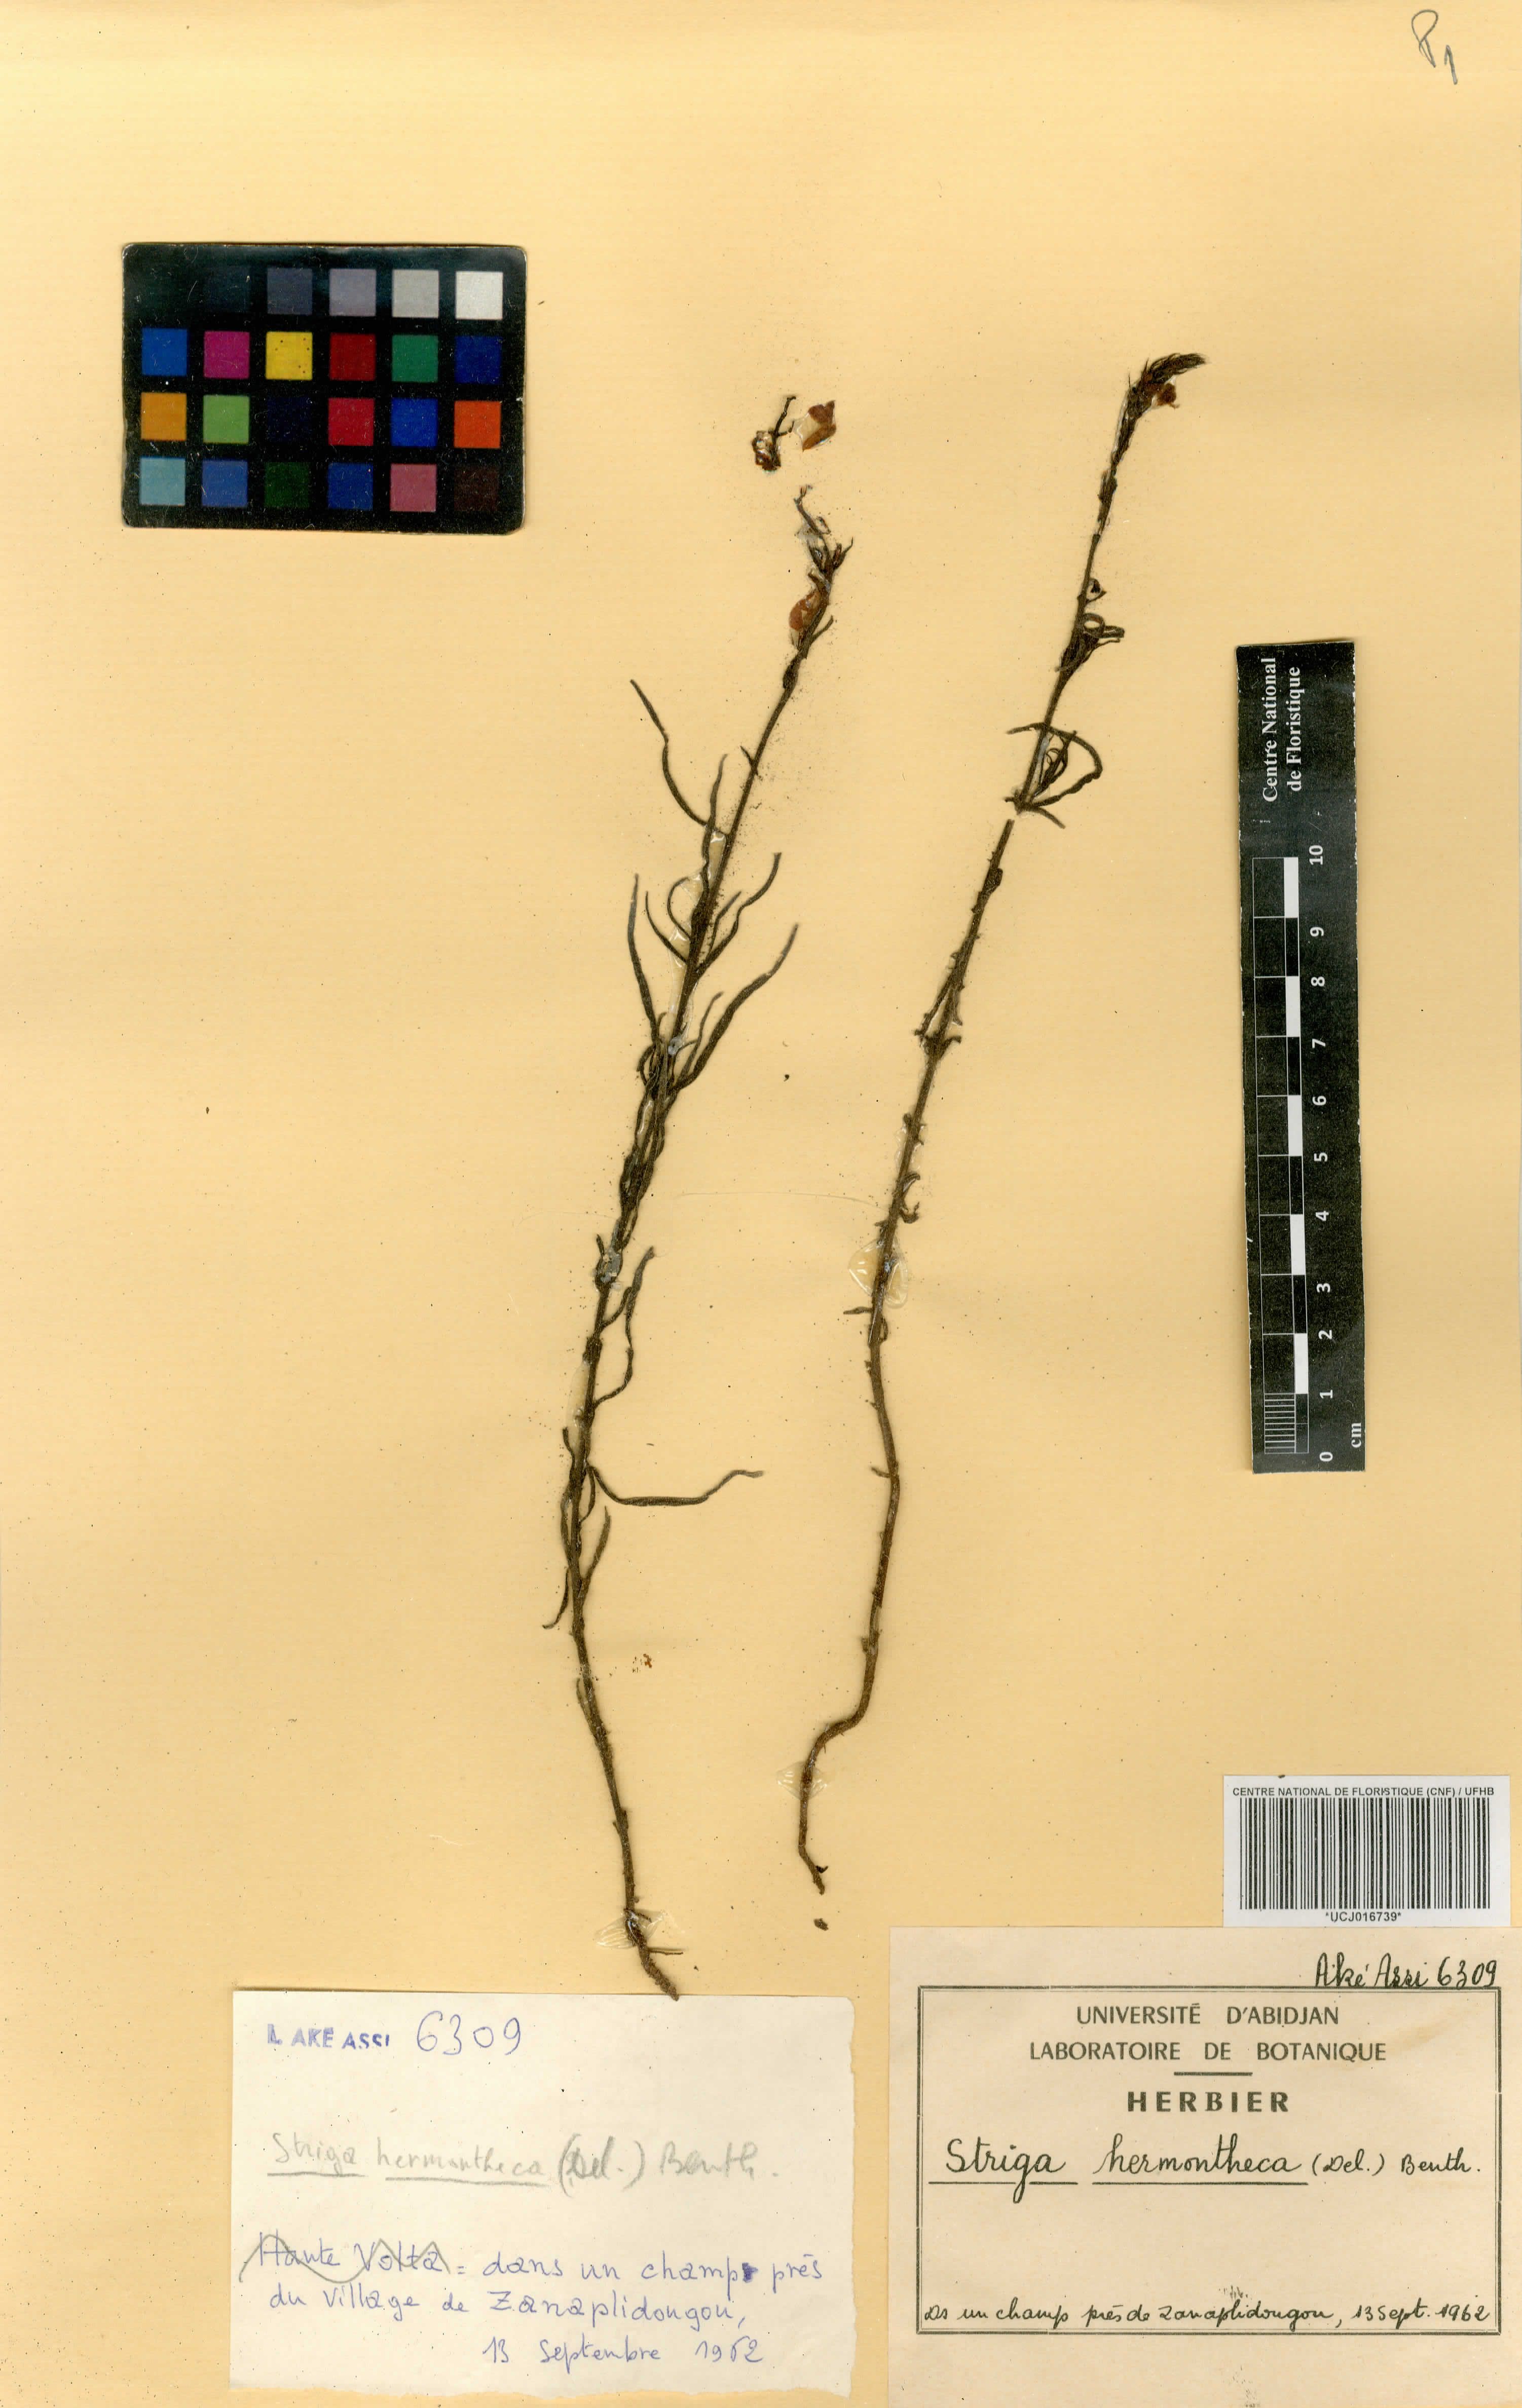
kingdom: Plantae
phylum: Tracheophyta
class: Magnoliopsida
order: Lamiales
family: Orobanchaceae
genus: Striga
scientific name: Striga hermonthica
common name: Purple witchweed
